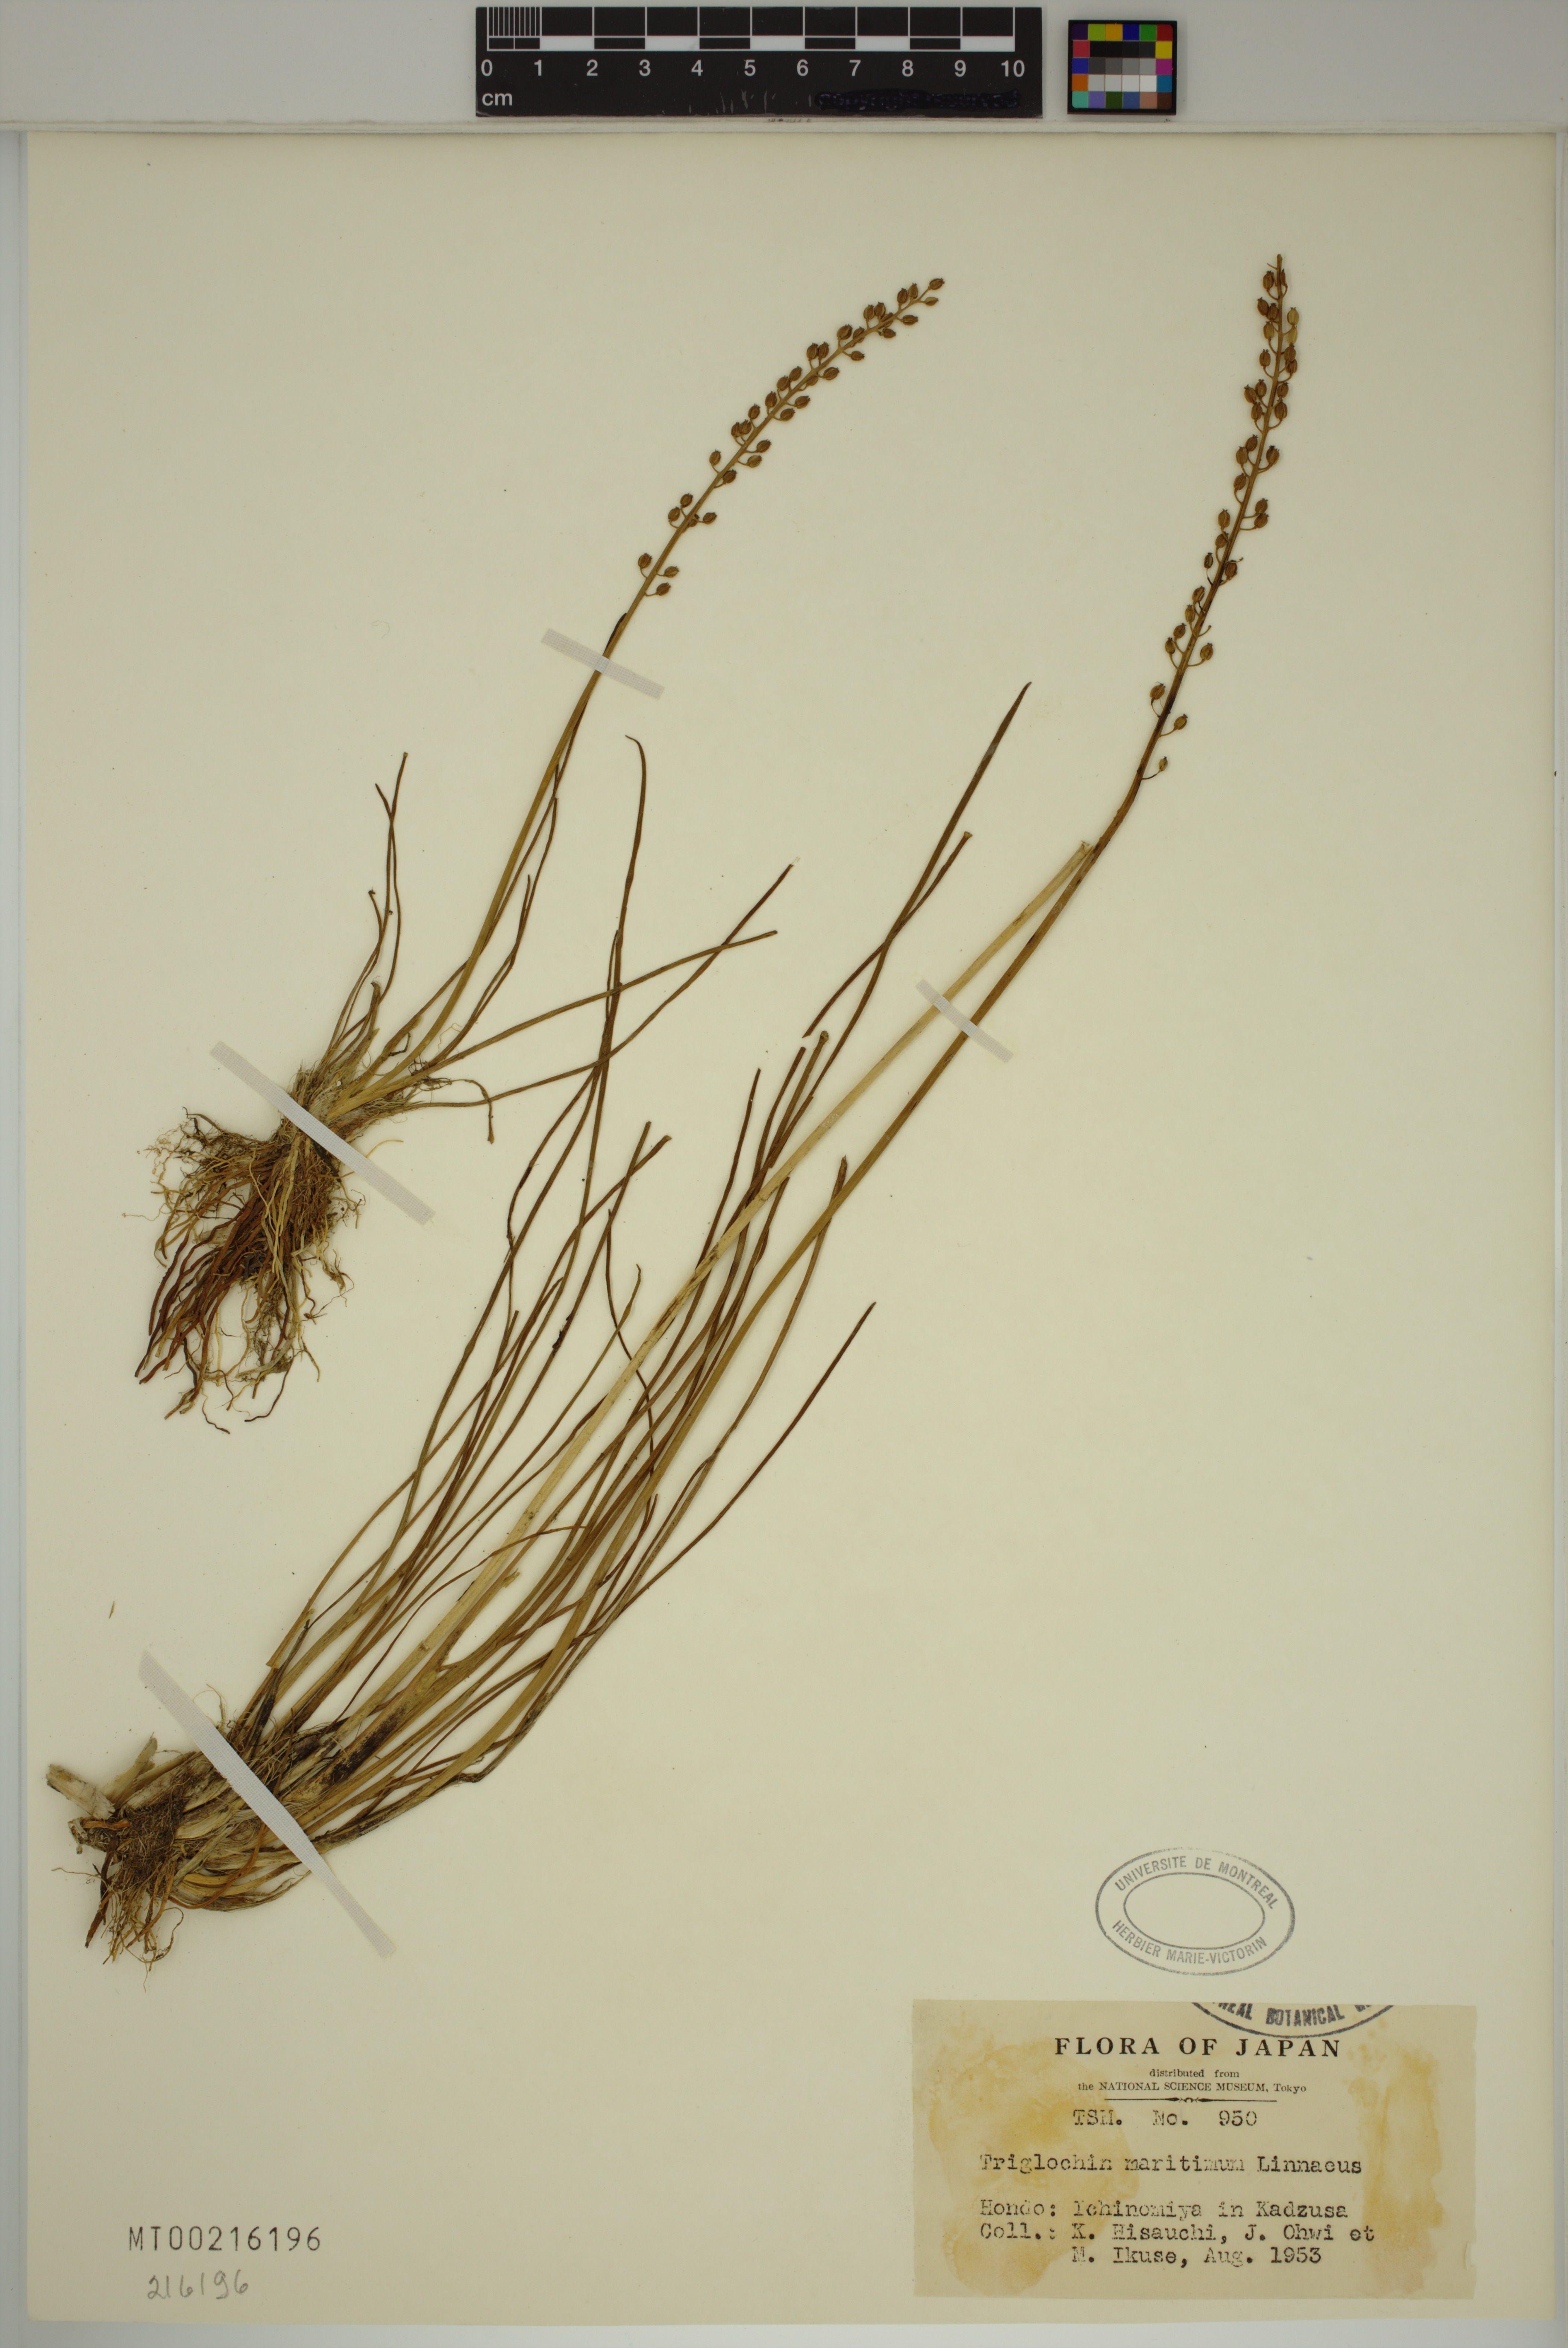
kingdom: Plantae
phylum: Tracheophyta
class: Liliopsida
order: Alismatales
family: Juncaginaceae
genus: Triglochin
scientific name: Triglochin maritima
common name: Sea arrowgrass
